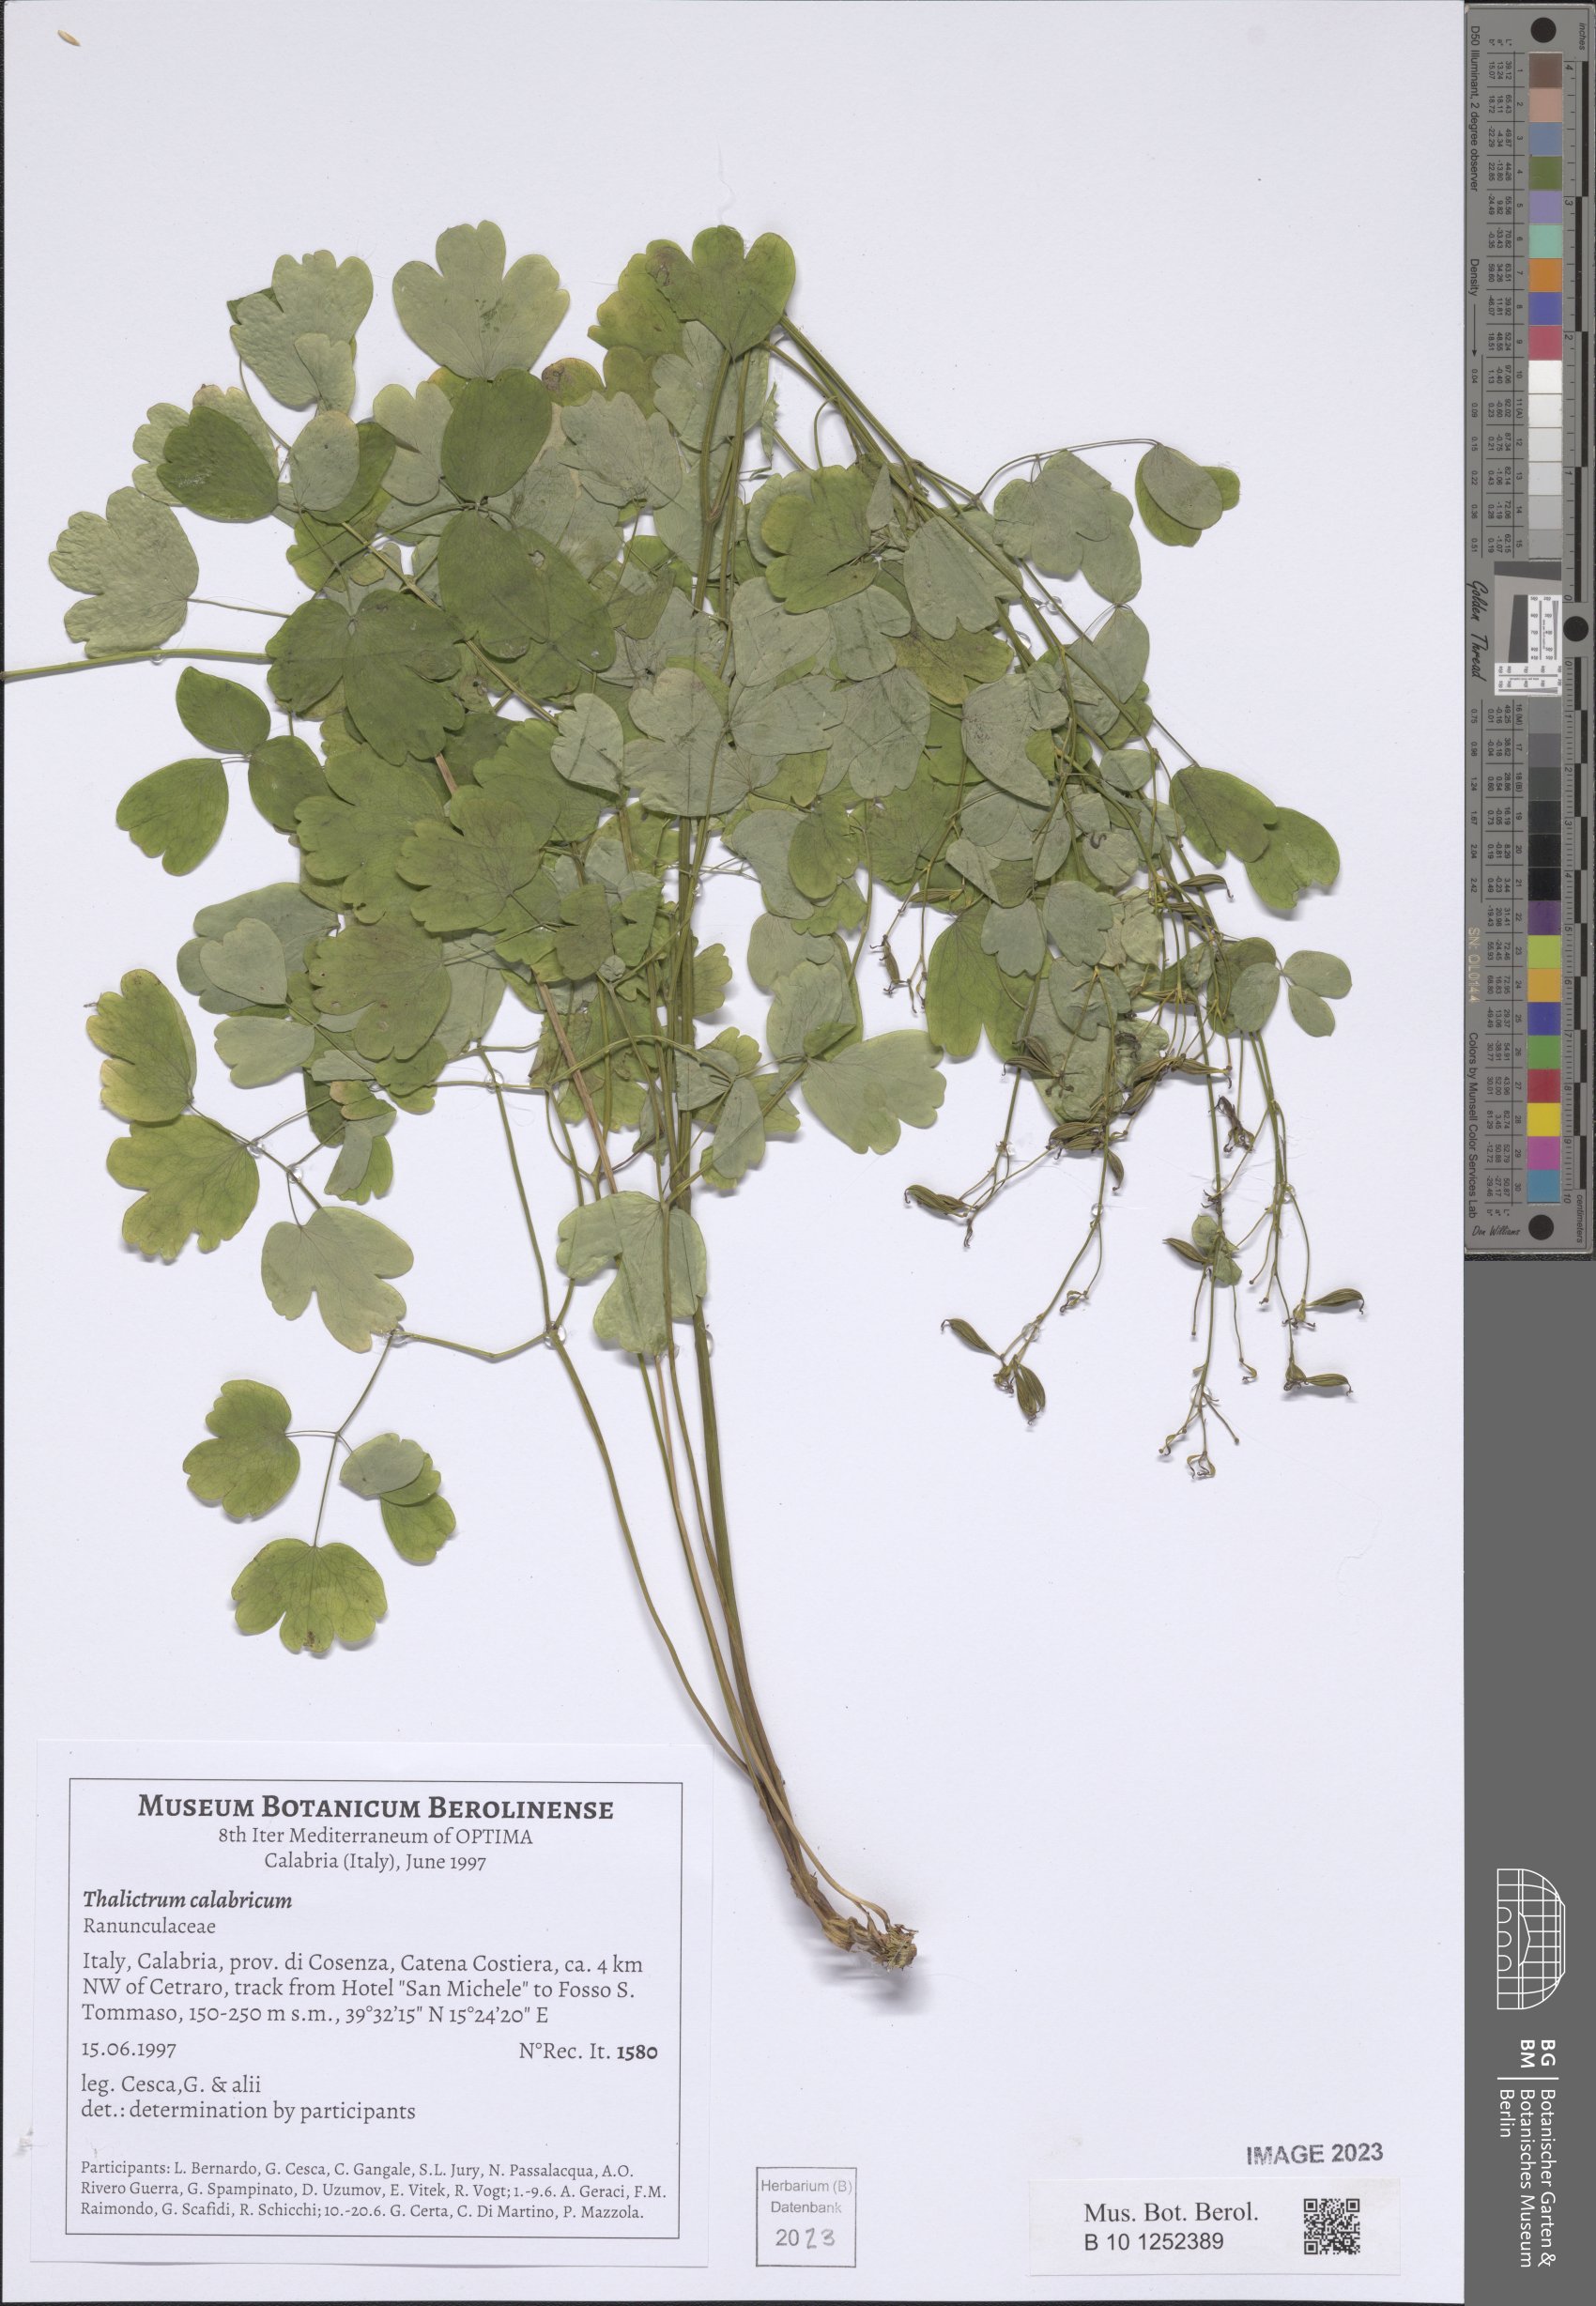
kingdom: Plantae
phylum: Tracheophyta
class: Magnoliopsida
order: Ranunculales
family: Ranunculaceae
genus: Thalictrum
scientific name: Thalictrum calabricum
